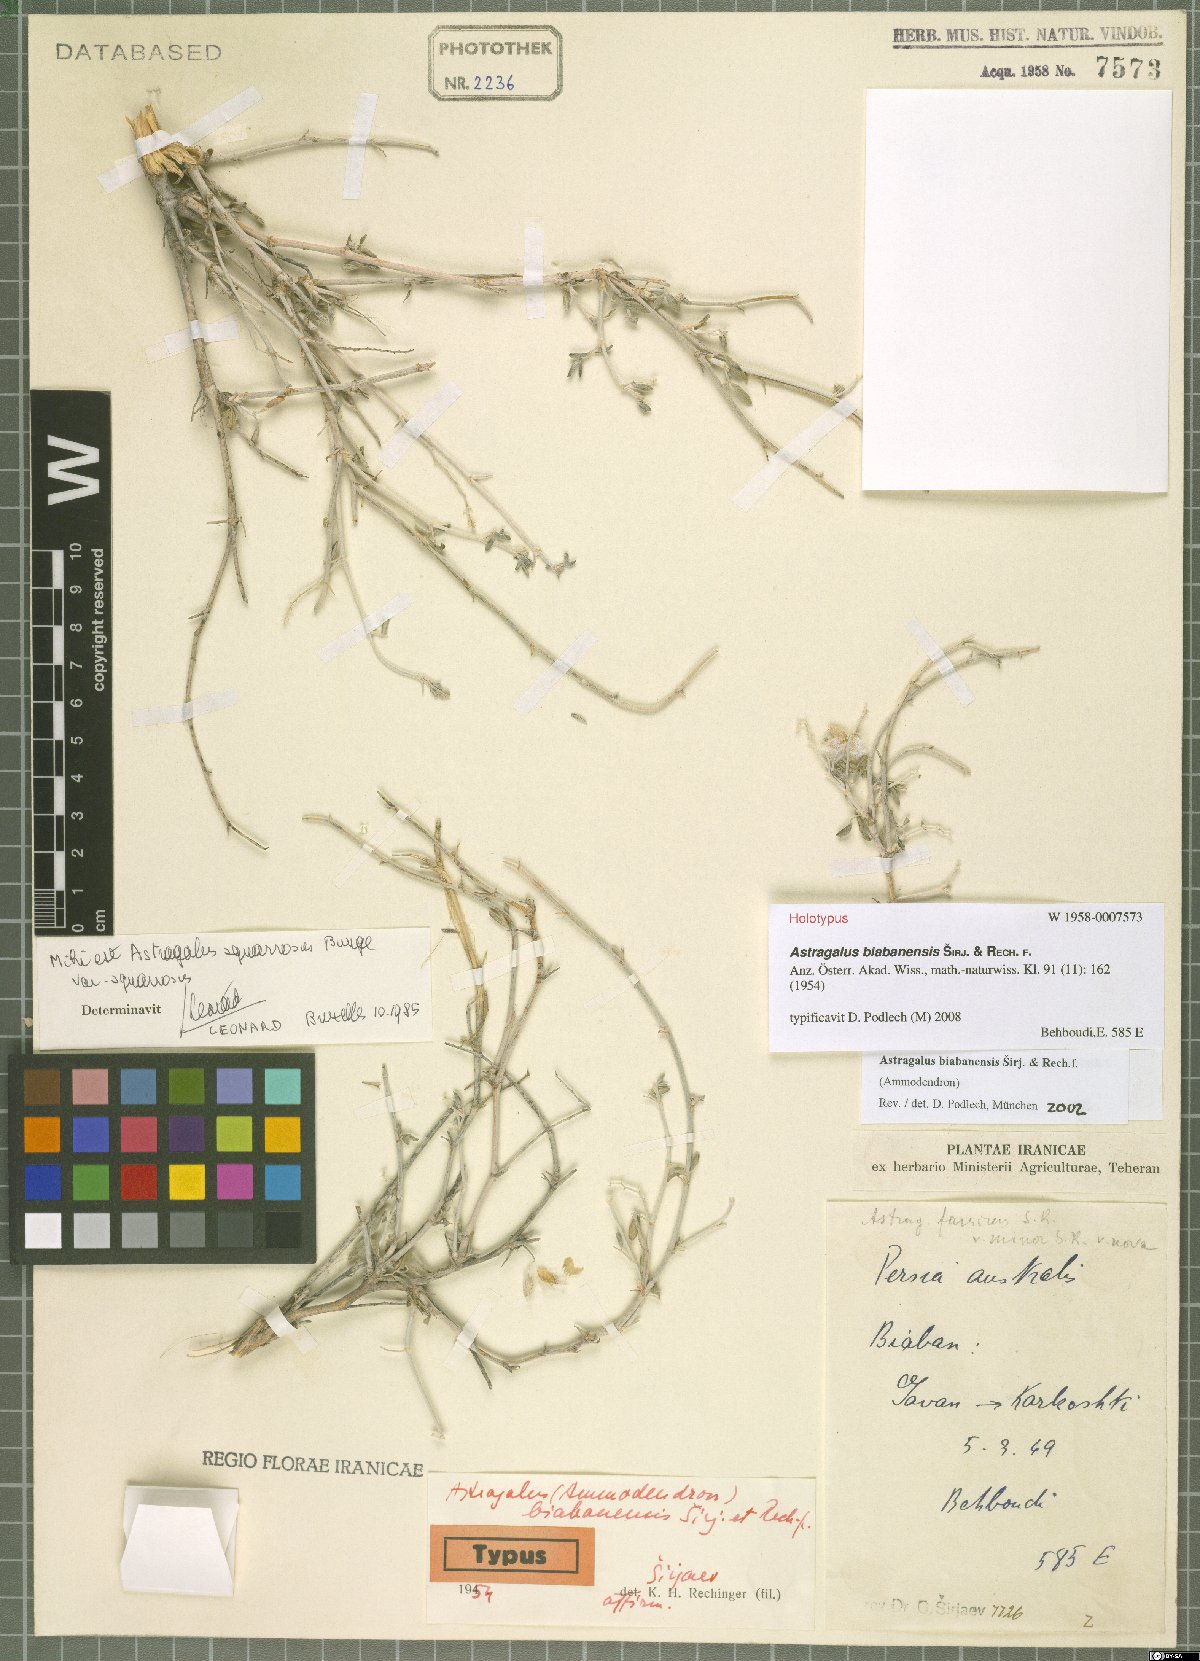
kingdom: Plantae
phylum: Tracheophyta
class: Magnoliopsida
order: Fabales
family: Fabaceae
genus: Astragalus
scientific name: Astragalus biabanensis
